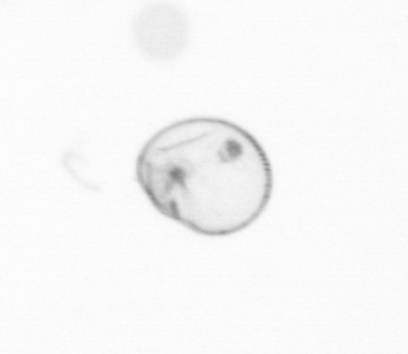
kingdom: Chromista
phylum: Myzozoa
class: Dinophyceae
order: Noctilucales
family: Noctilucaceae
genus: Noctiluca
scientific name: Noctiluca scintillans
